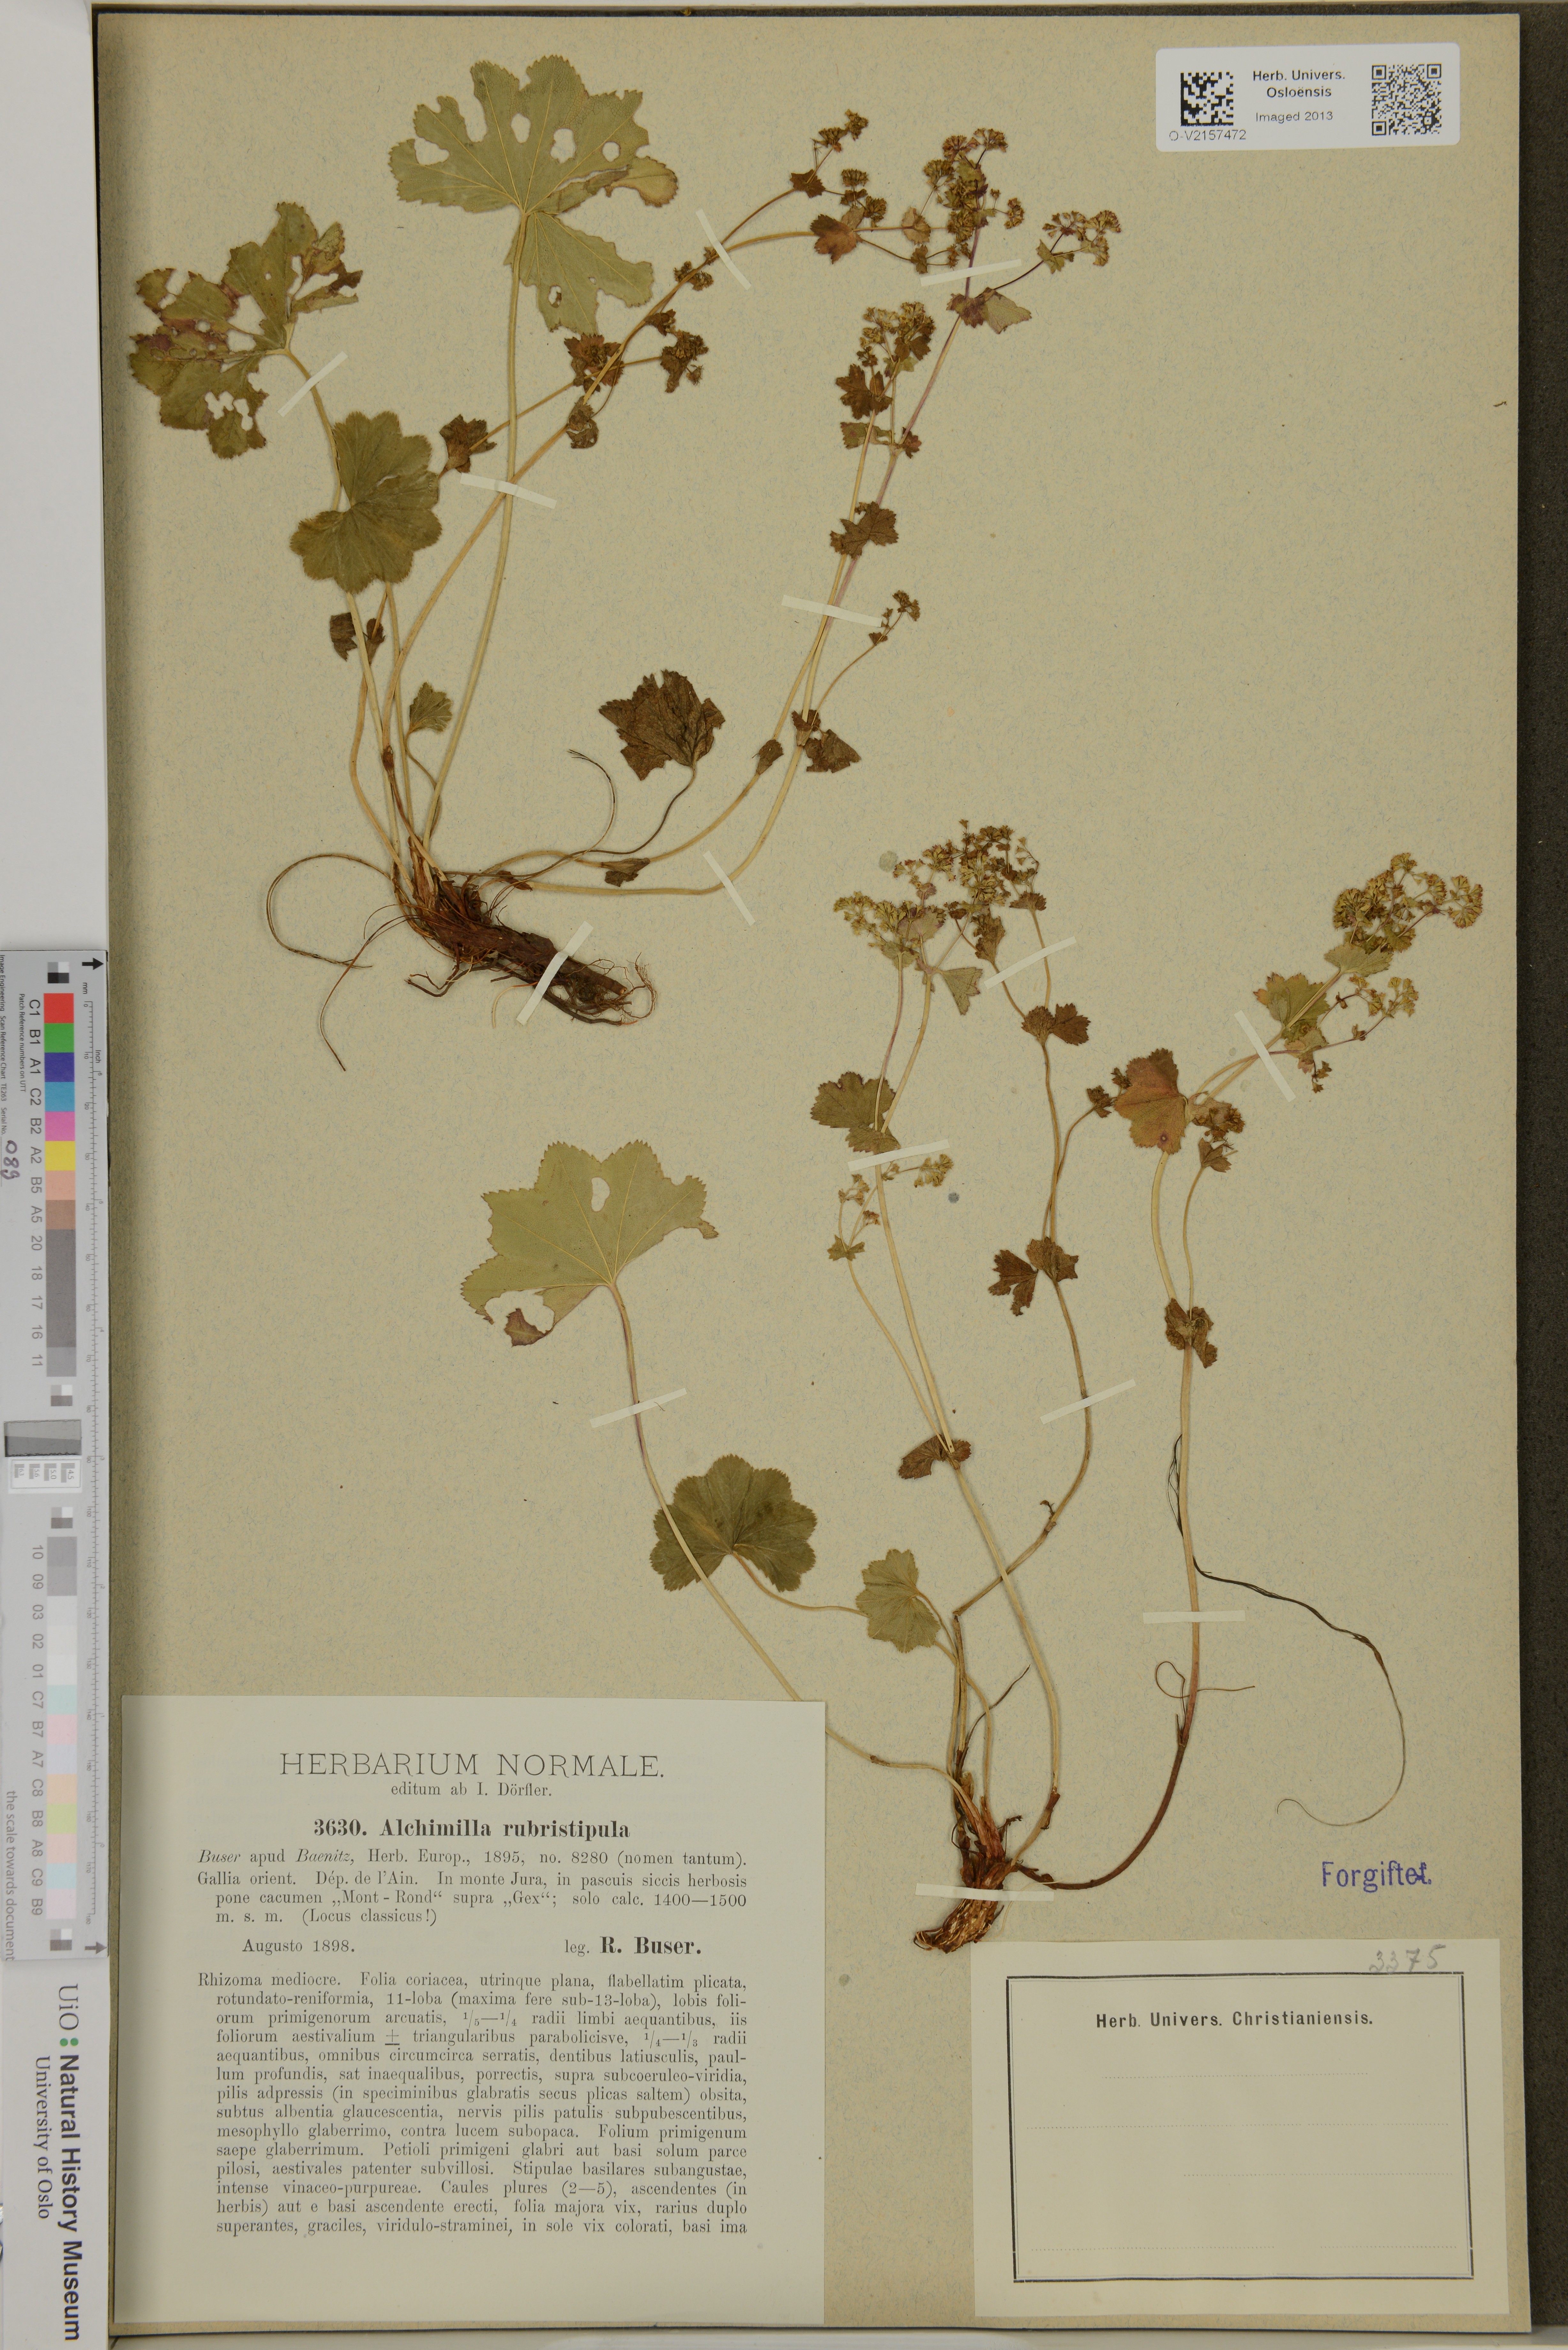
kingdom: Plantae
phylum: Tracheophyta
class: Magnoliopsida
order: Rosales
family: Rosaceae
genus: Alchemilla
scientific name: Alchemilla rubristipula
